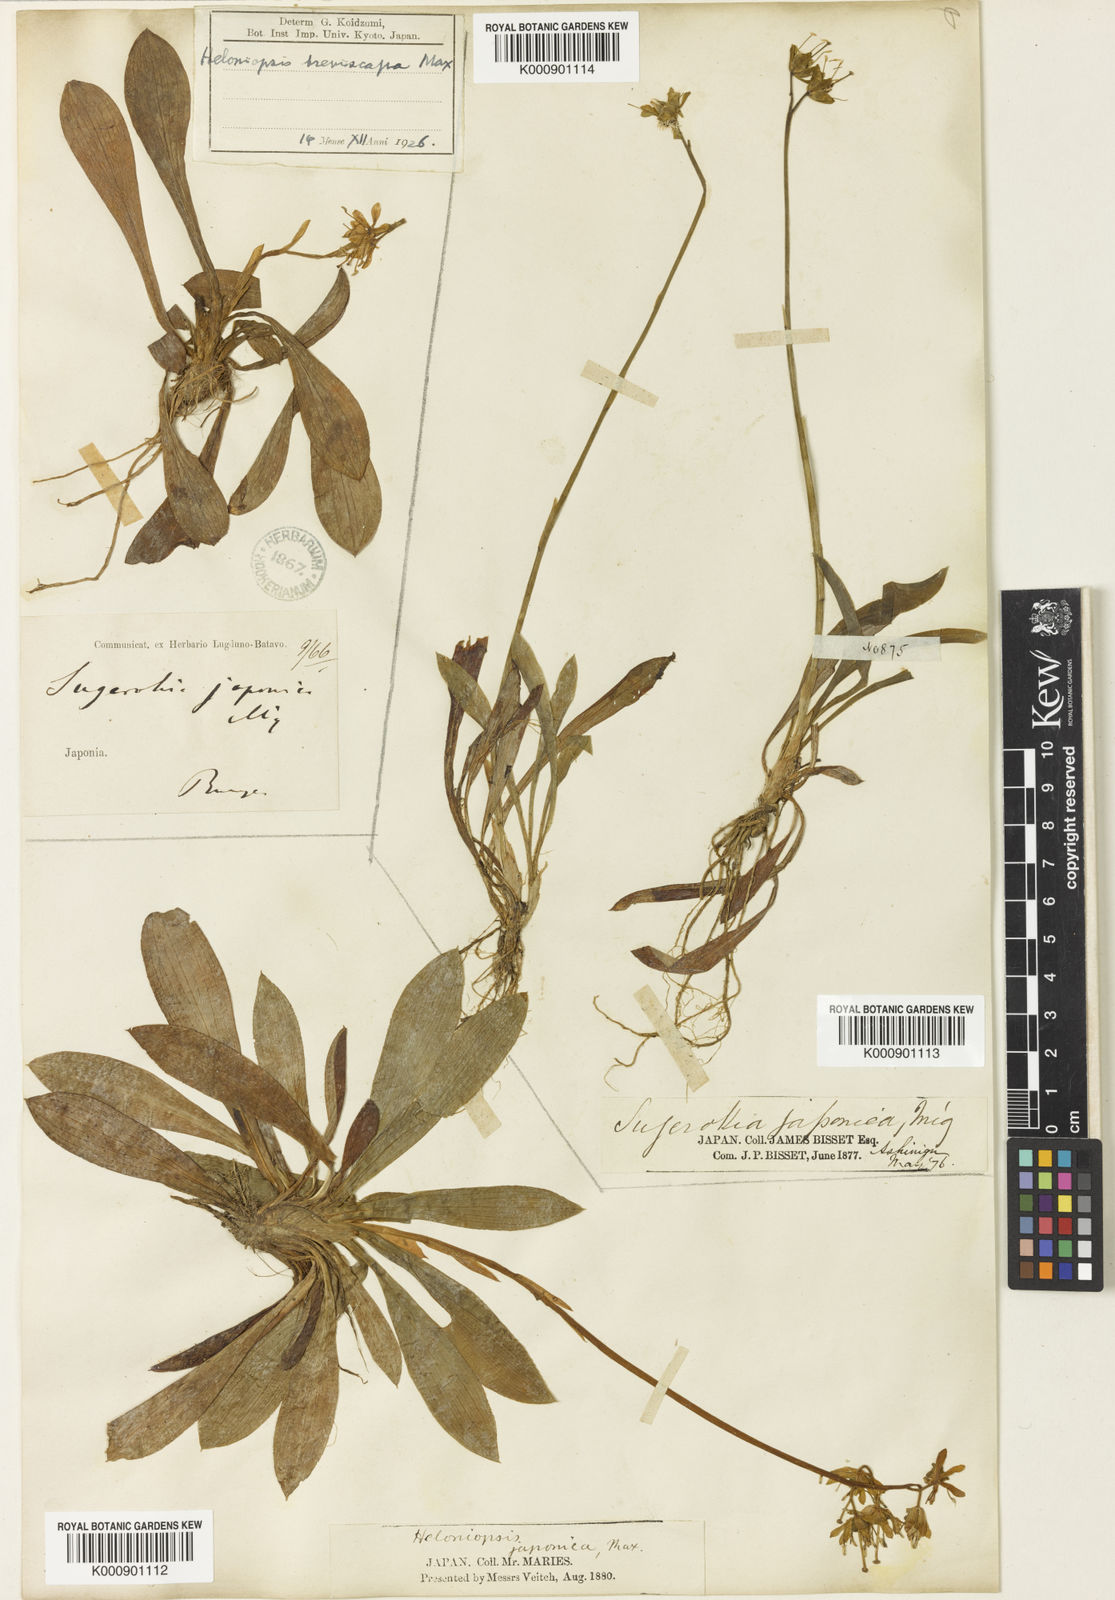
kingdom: Plantae
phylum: Tracheophyta
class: Liliopsida
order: Liliales
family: Melanthiaceae
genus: Helonias
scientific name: Helonias
